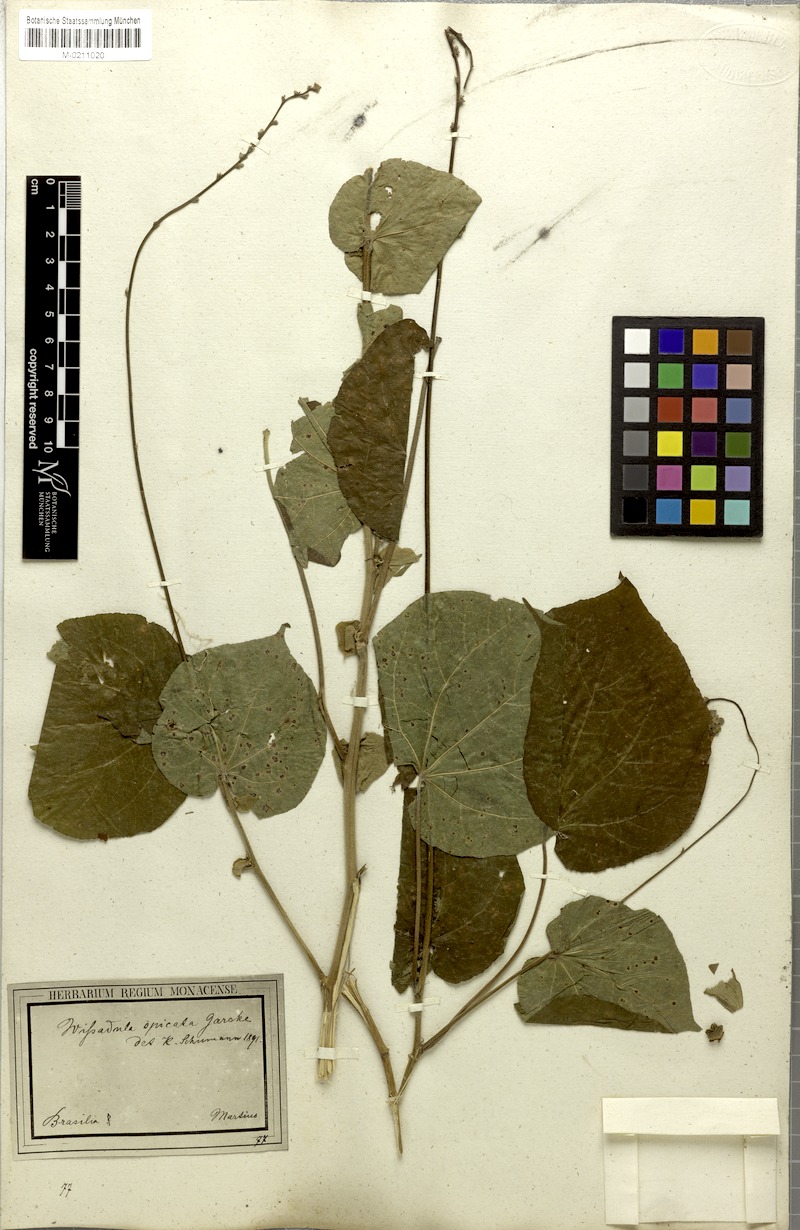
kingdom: Plantae
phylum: Tracheophyta
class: Magnoliopsida
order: Malvales
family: Malvaceae
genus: Allobriquetia
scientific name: Allobriquetia spicata
